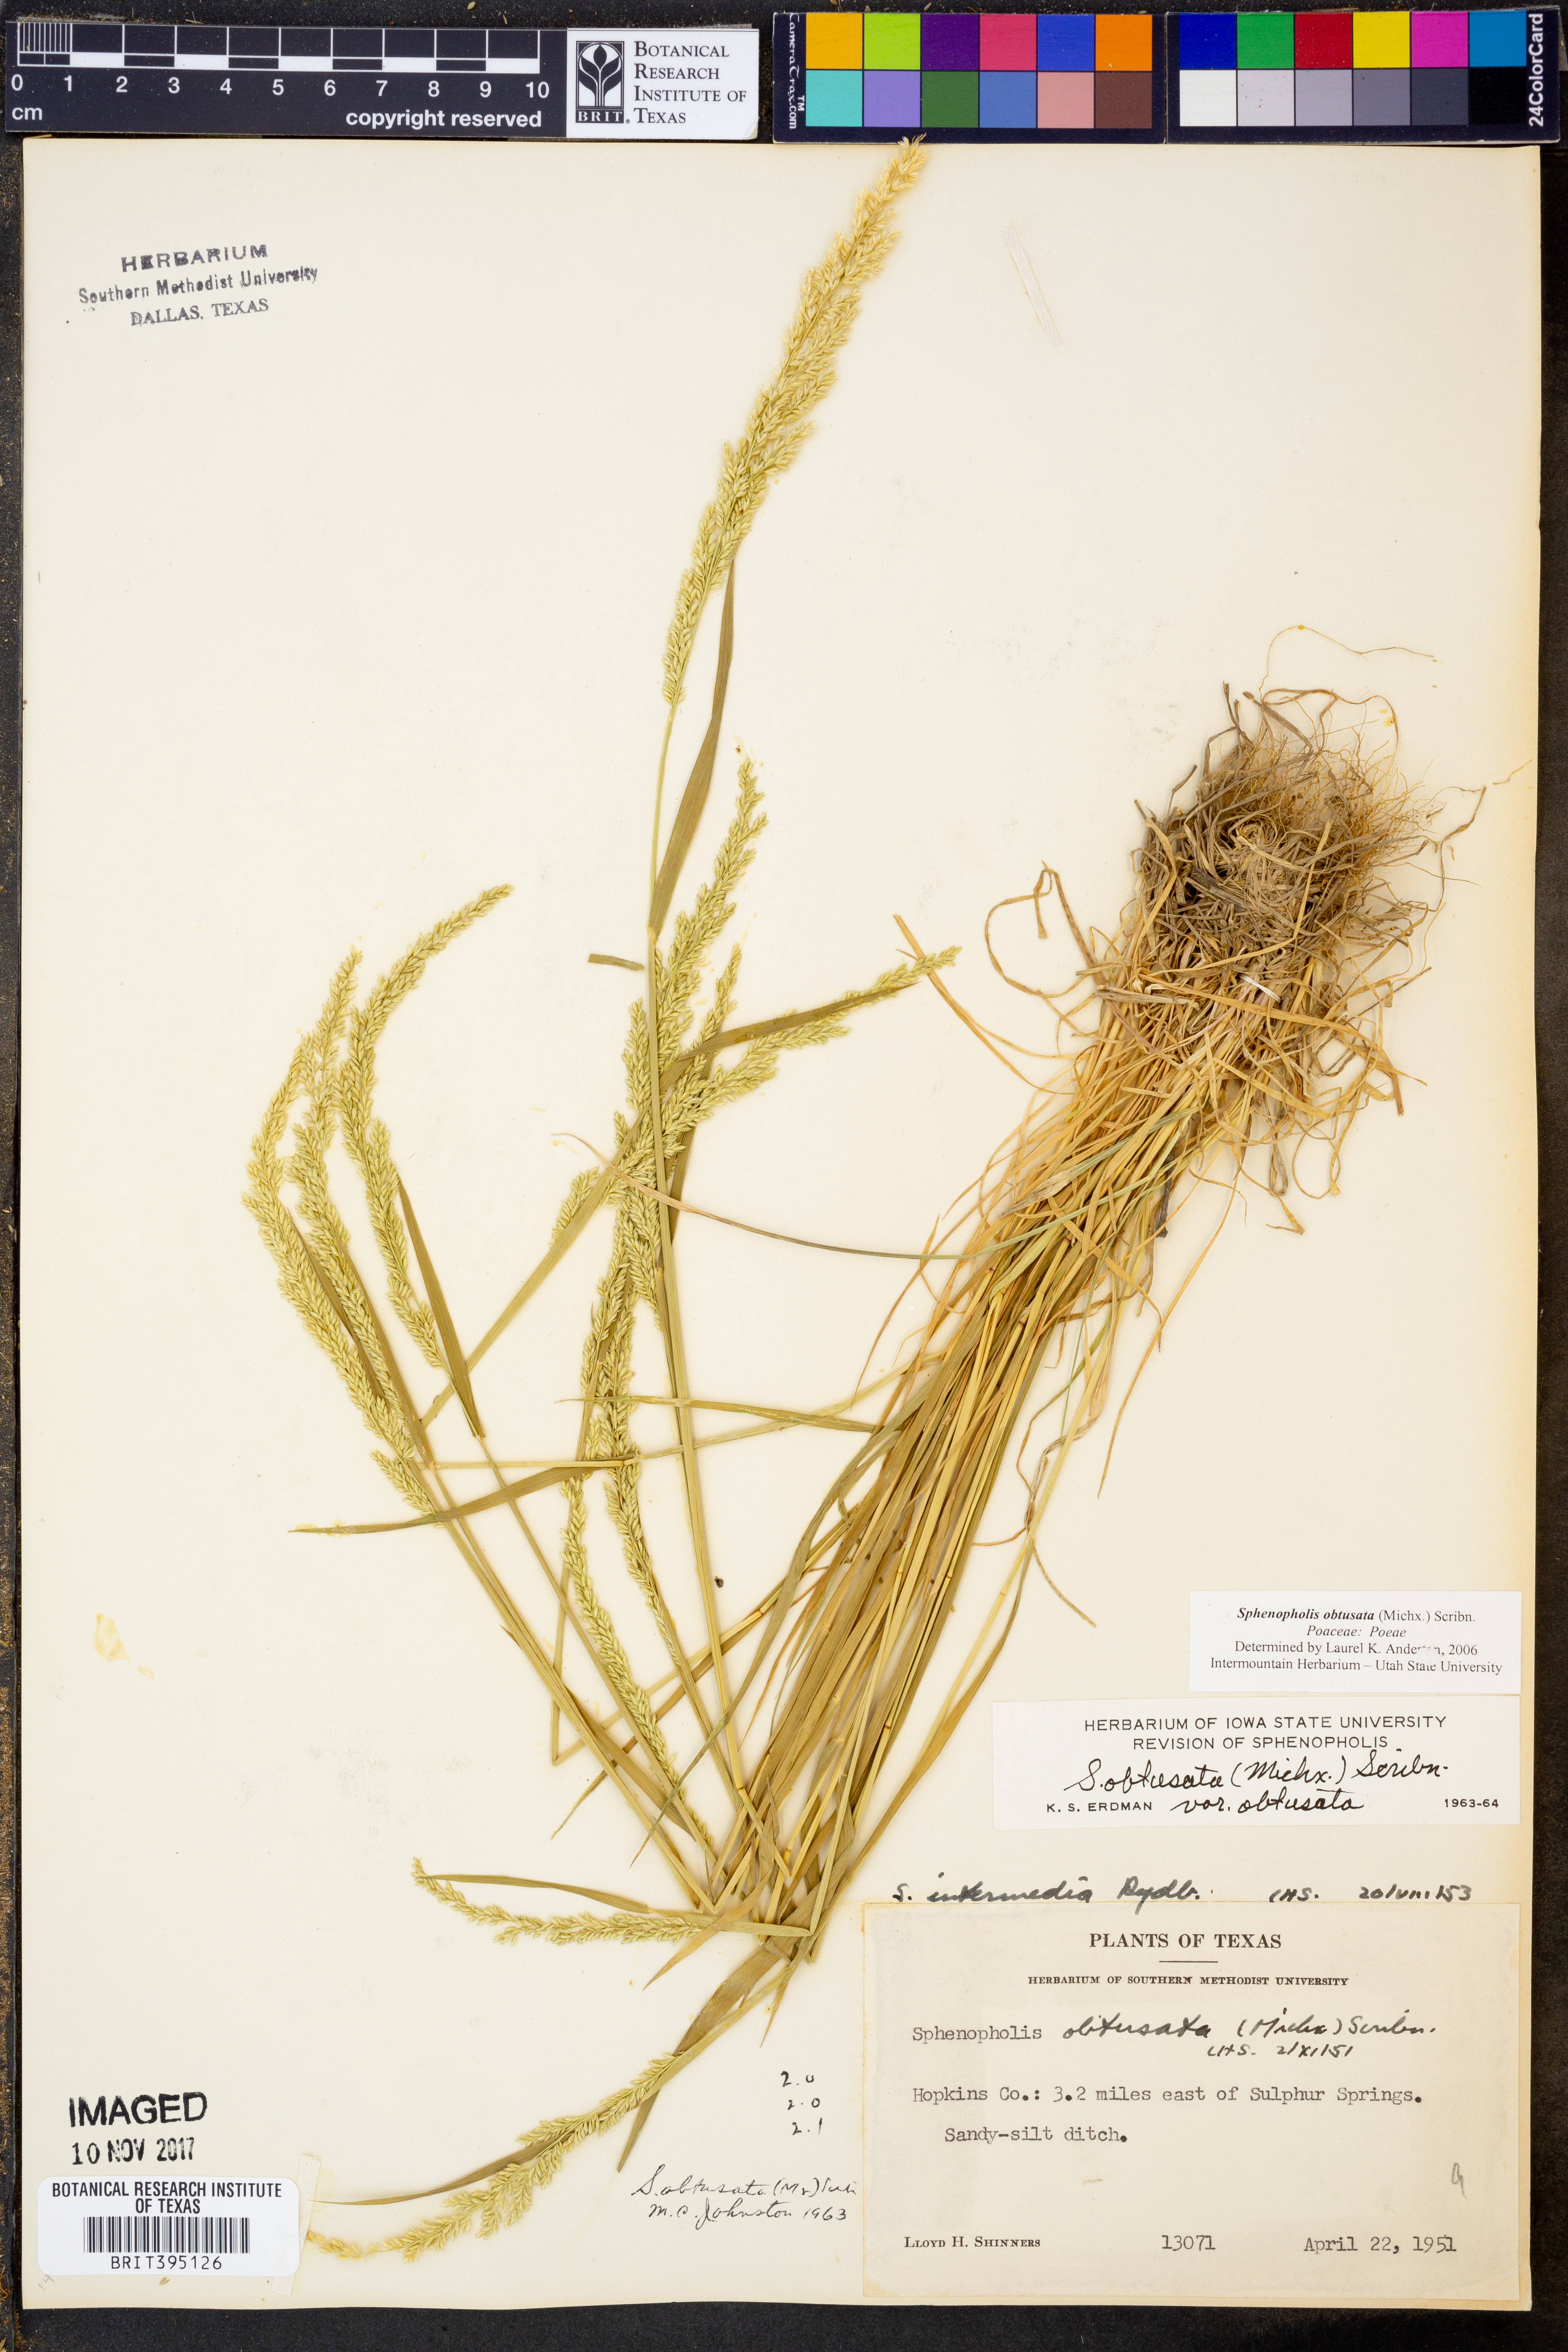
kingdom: Plantae
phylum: Tracheophyta
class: Liliopsida
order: Poales
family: Poaceae
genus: Sphenopholis
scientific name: Sphenopholis obtusata
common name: Prairie grass
